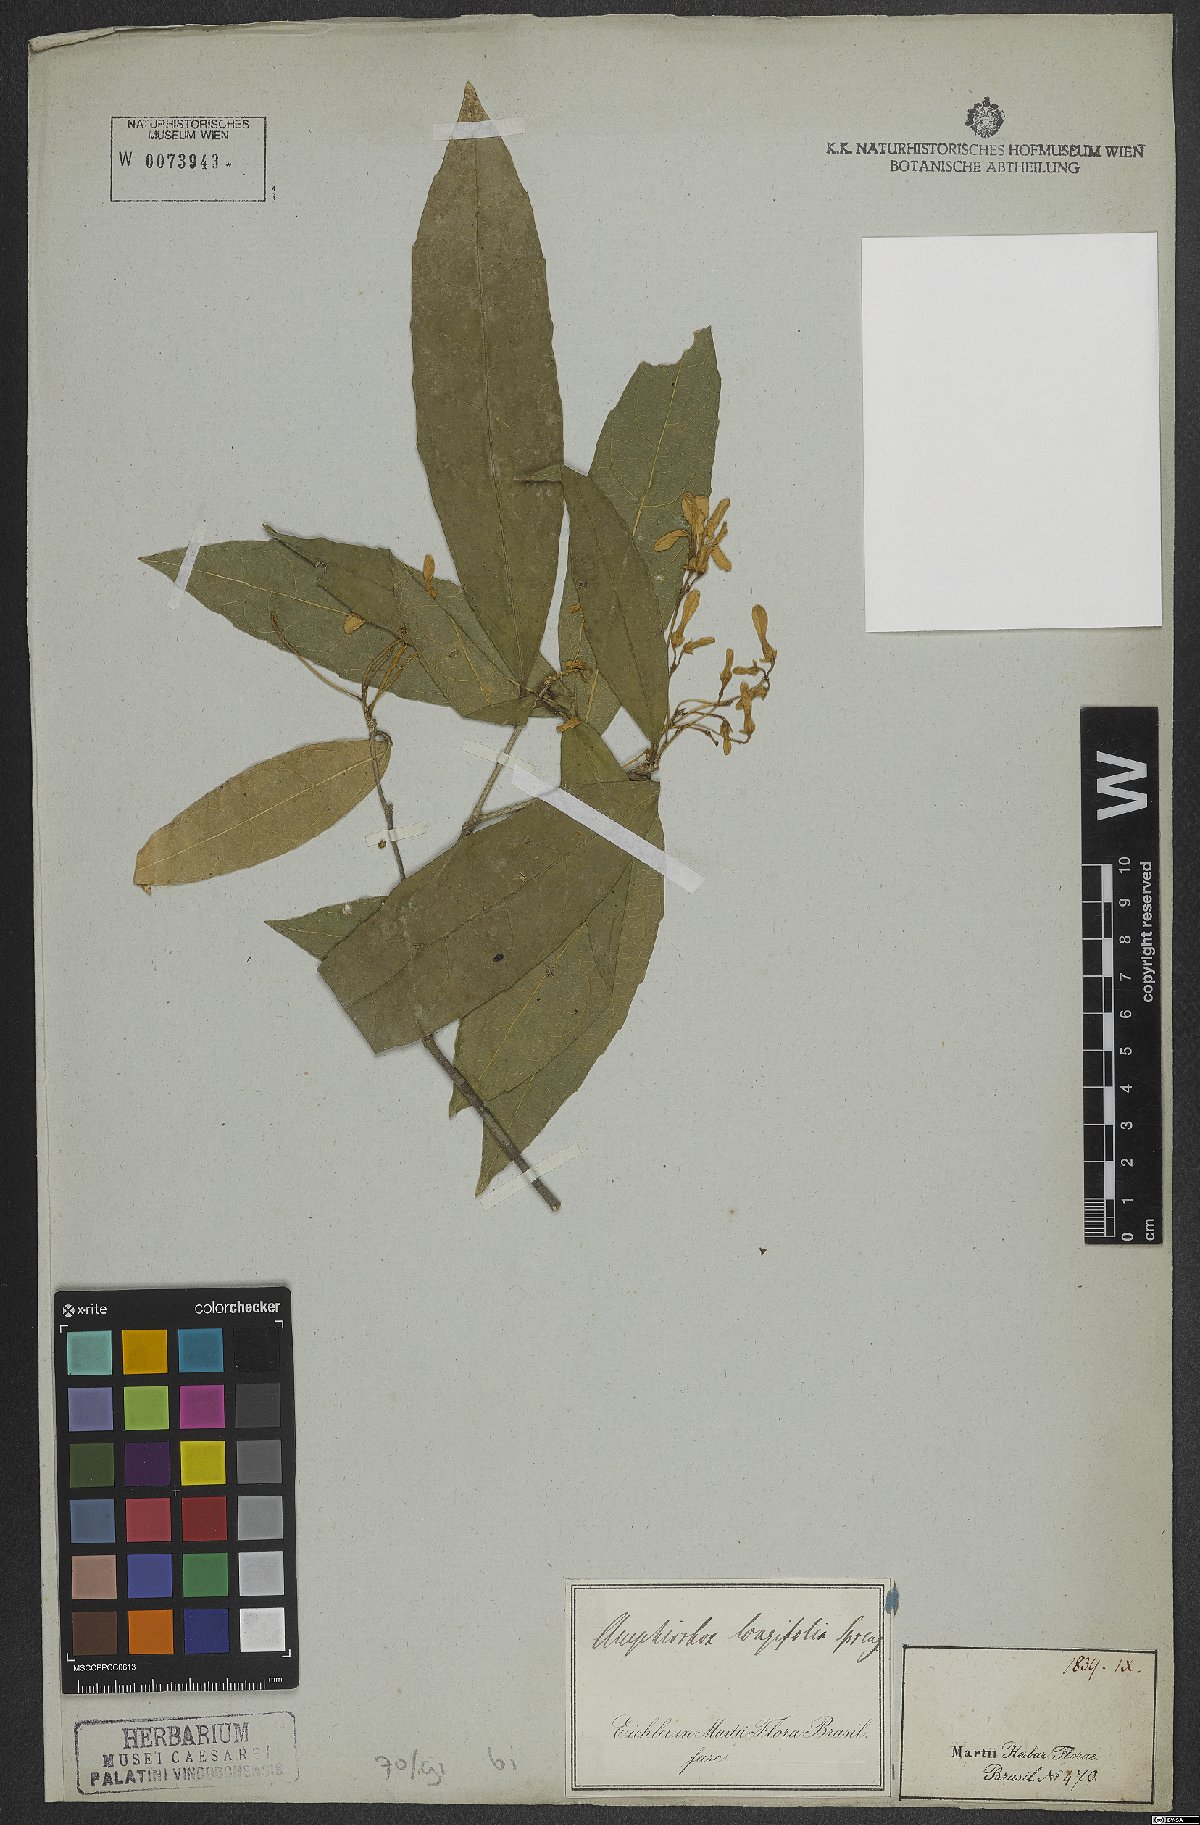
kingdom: Plantae
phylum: Tracheophyta
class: Magnoliopsida
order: Malpighiales
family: Violaceae
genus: Amphirrhox
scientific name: Amphirrhox longifolia
